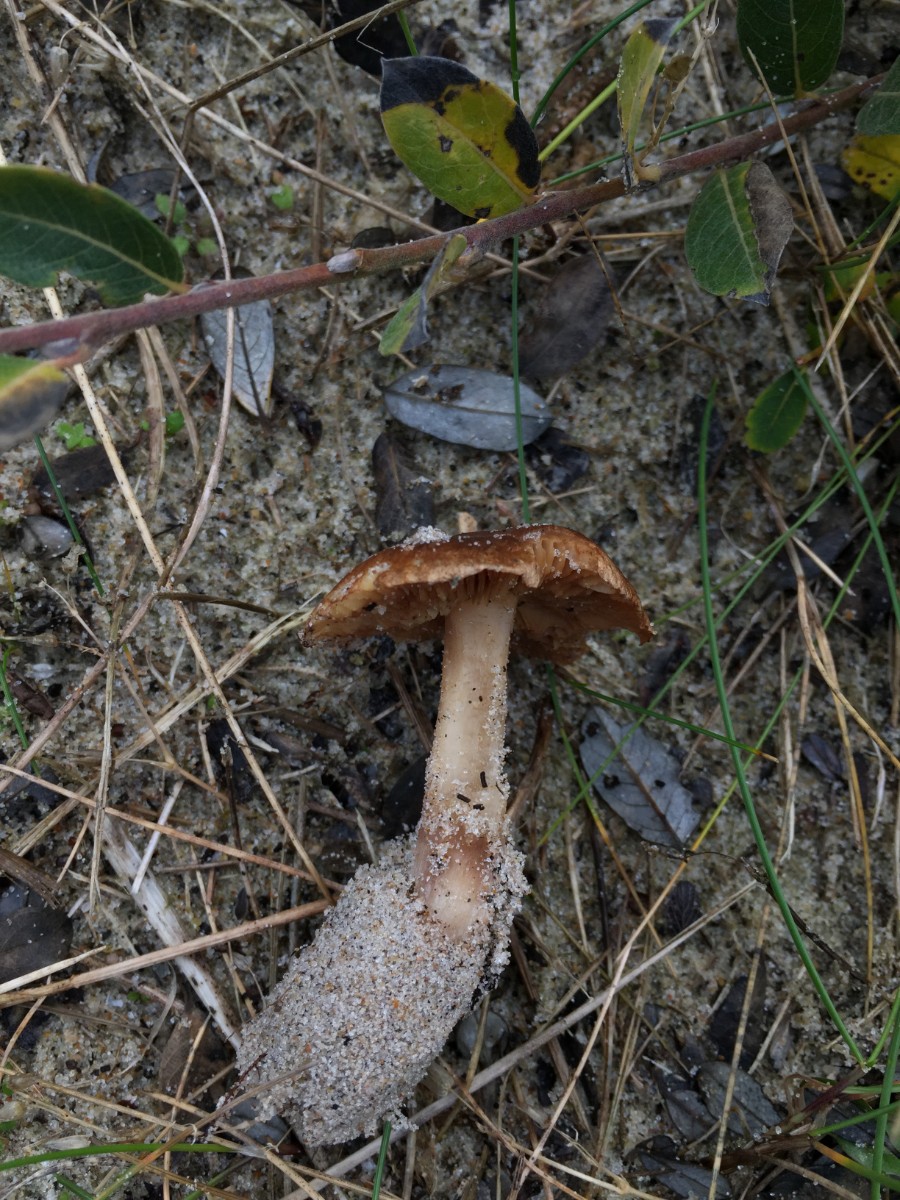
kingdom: Fungi
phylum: Basidiomycota
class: Agaricomycetes
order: Agaricales
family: Inocybaceae
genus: Inocybe
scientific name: Inocybe dunensis
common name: Dune fibrecap
